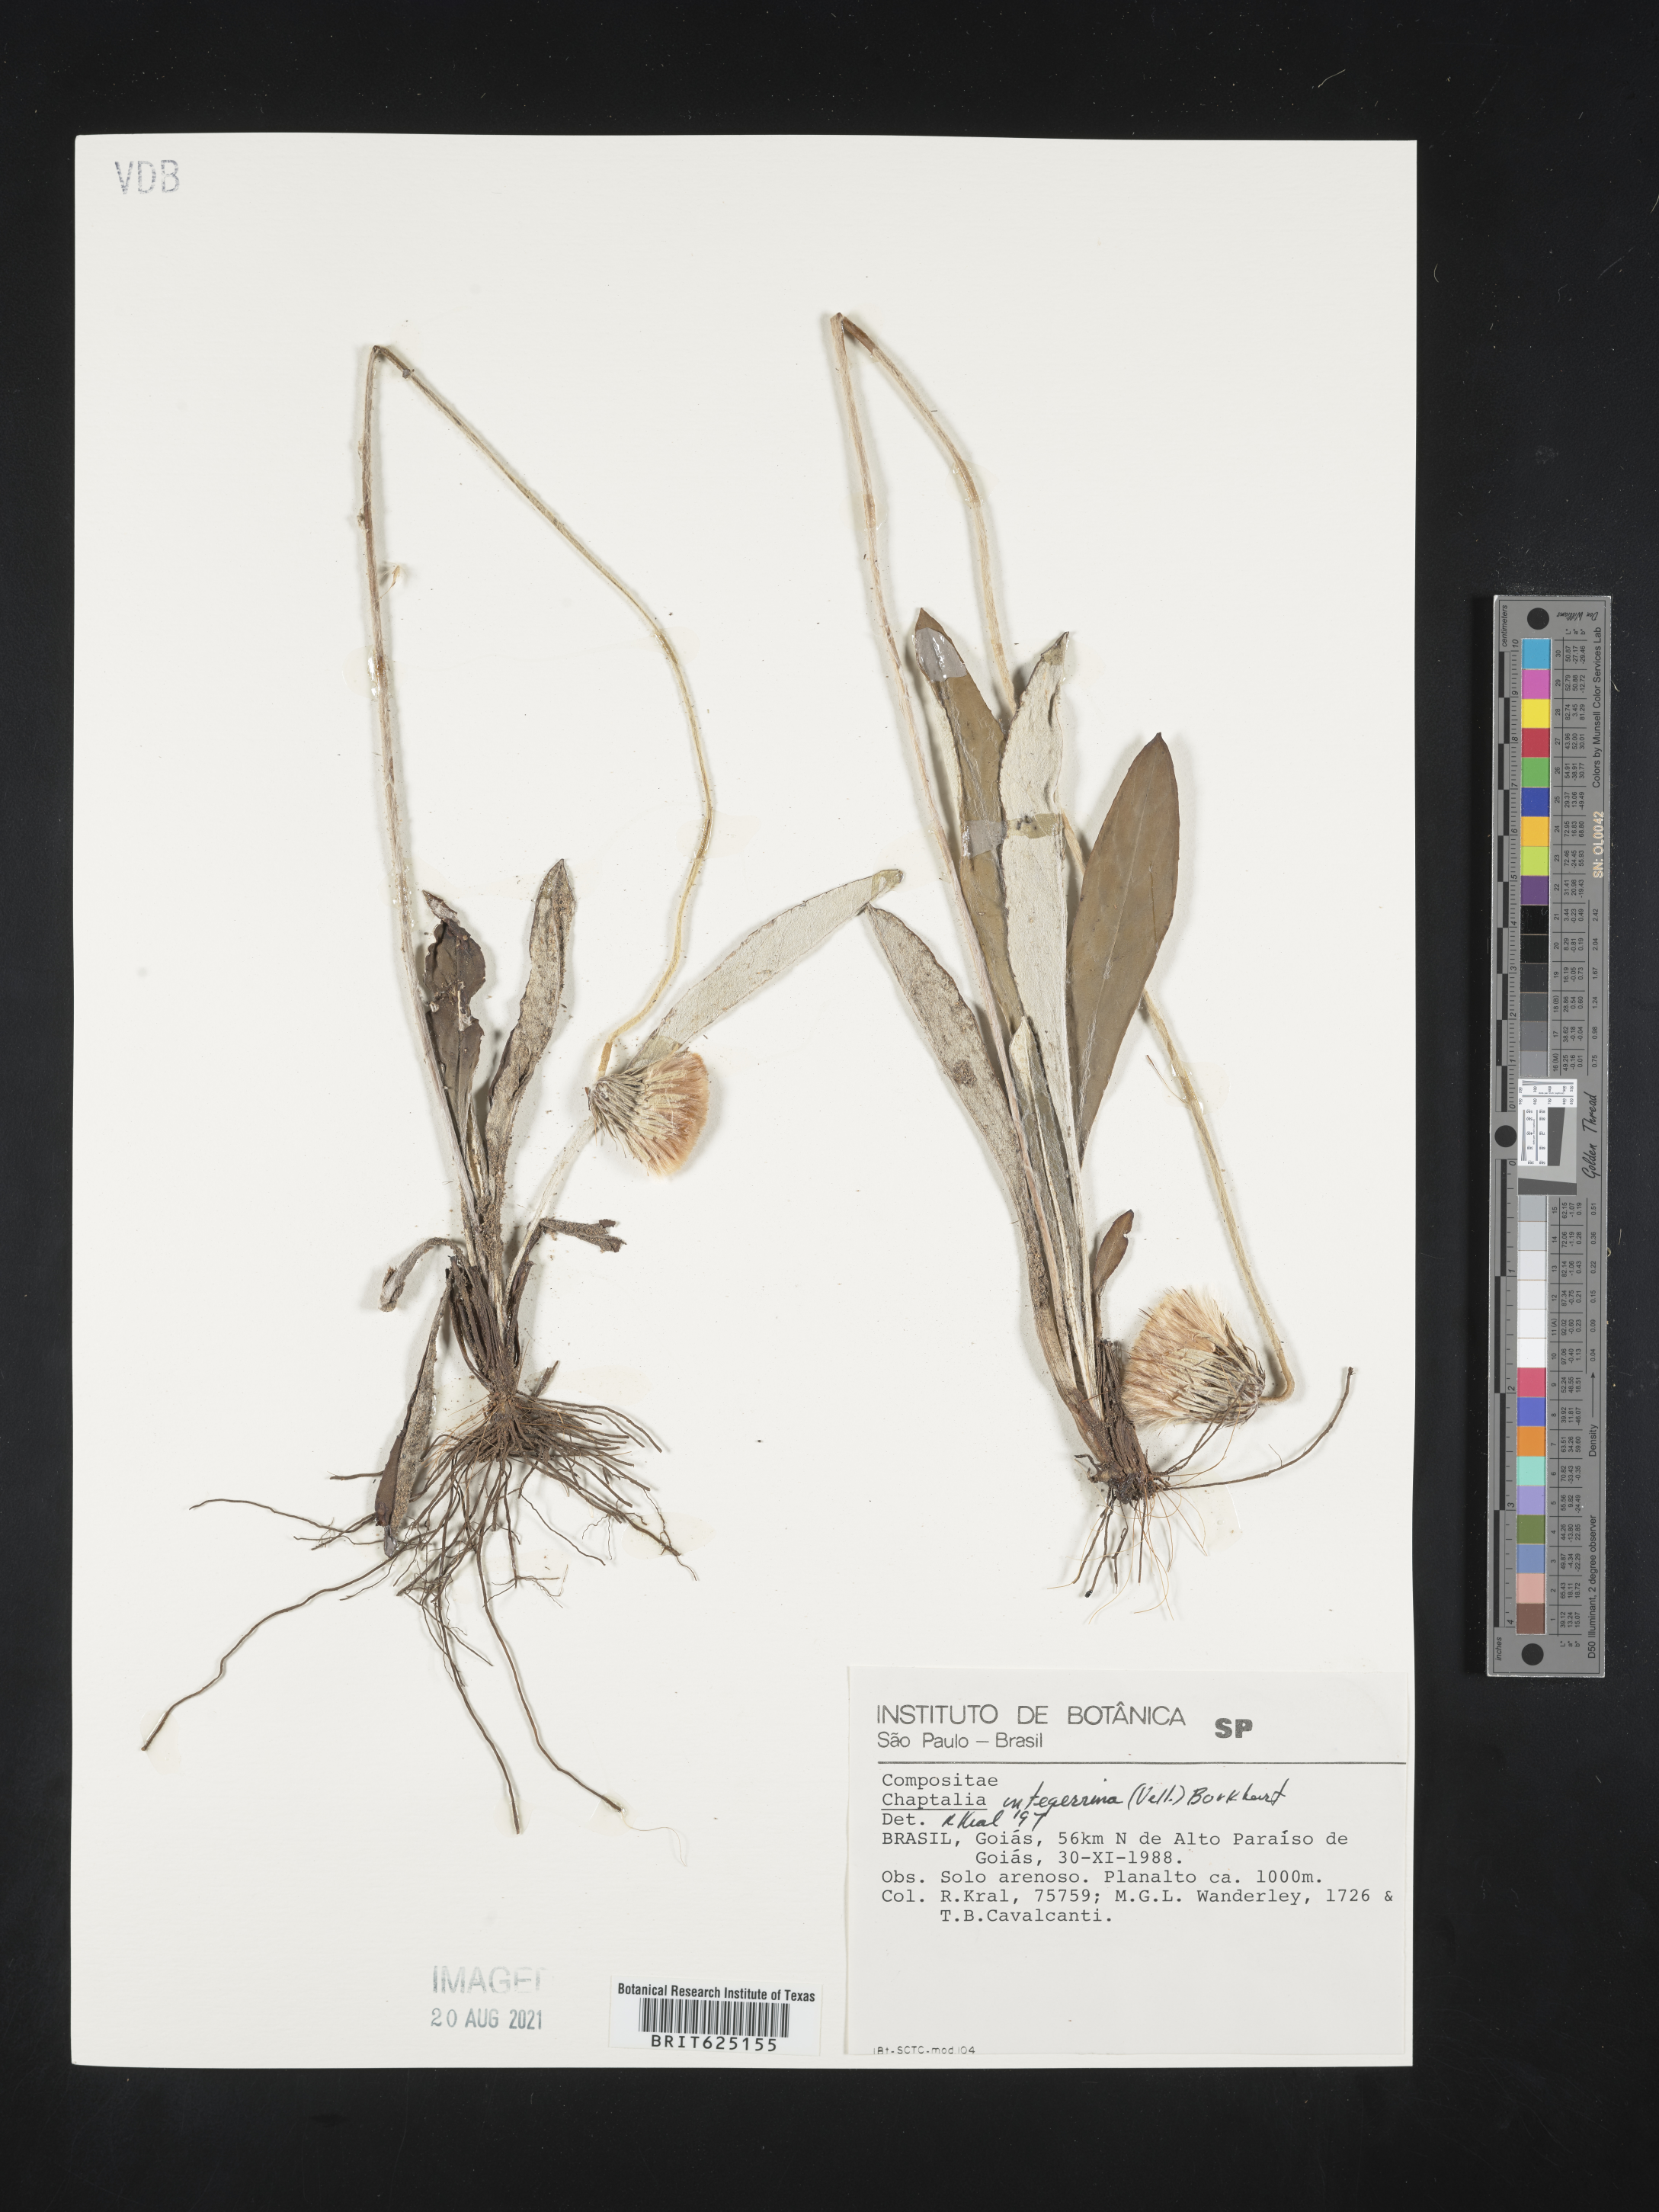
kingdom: Plantae
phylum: Tracheophyta
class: Magnoliopsida
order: Asterales
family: Asteraceae
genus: Chaptalia
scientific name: Chaptalia integerrima
